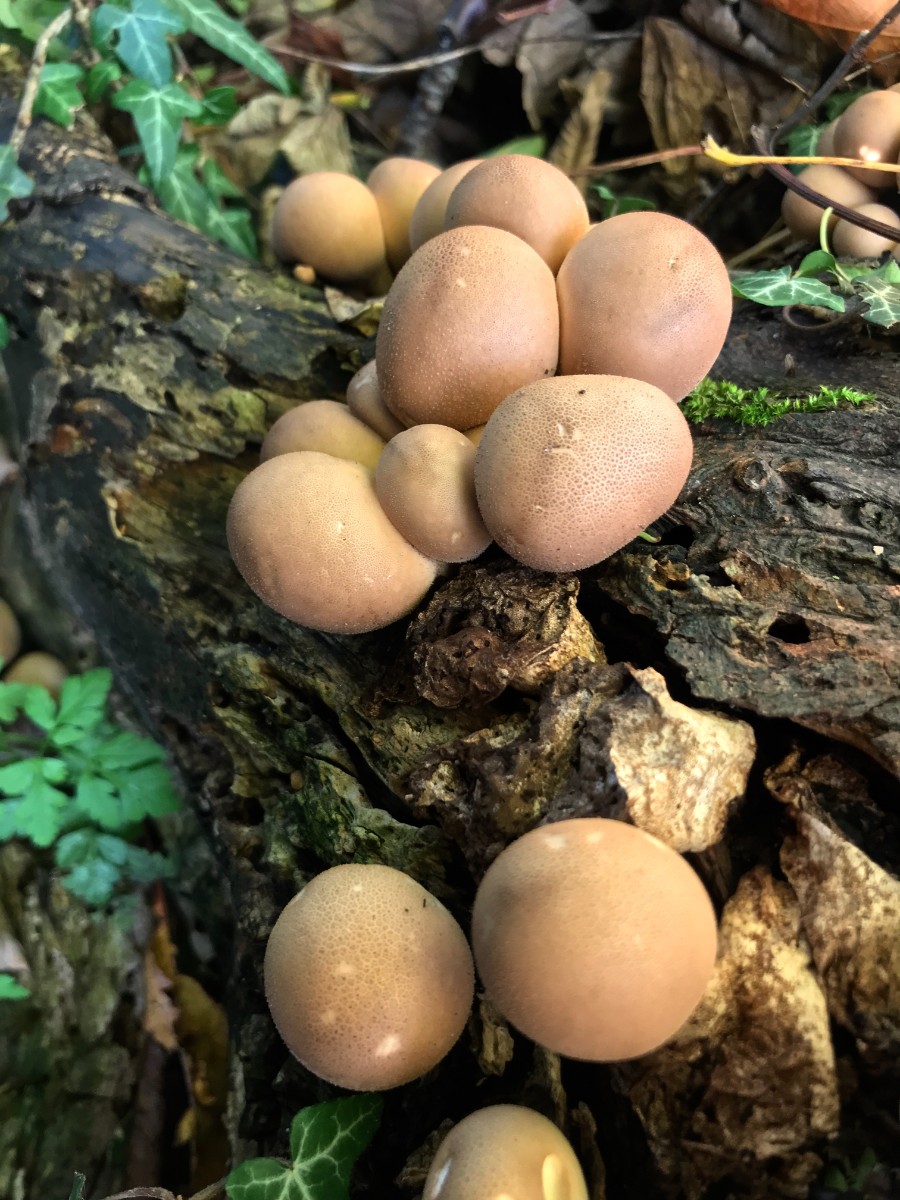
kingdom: Fungi
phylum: Basidiomycota
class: Agaricomycetes
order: Agaricales
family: Lycoperdaceae
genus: Apioperdon
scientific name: Apioperdon pyriforme
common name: pære-støvbold
